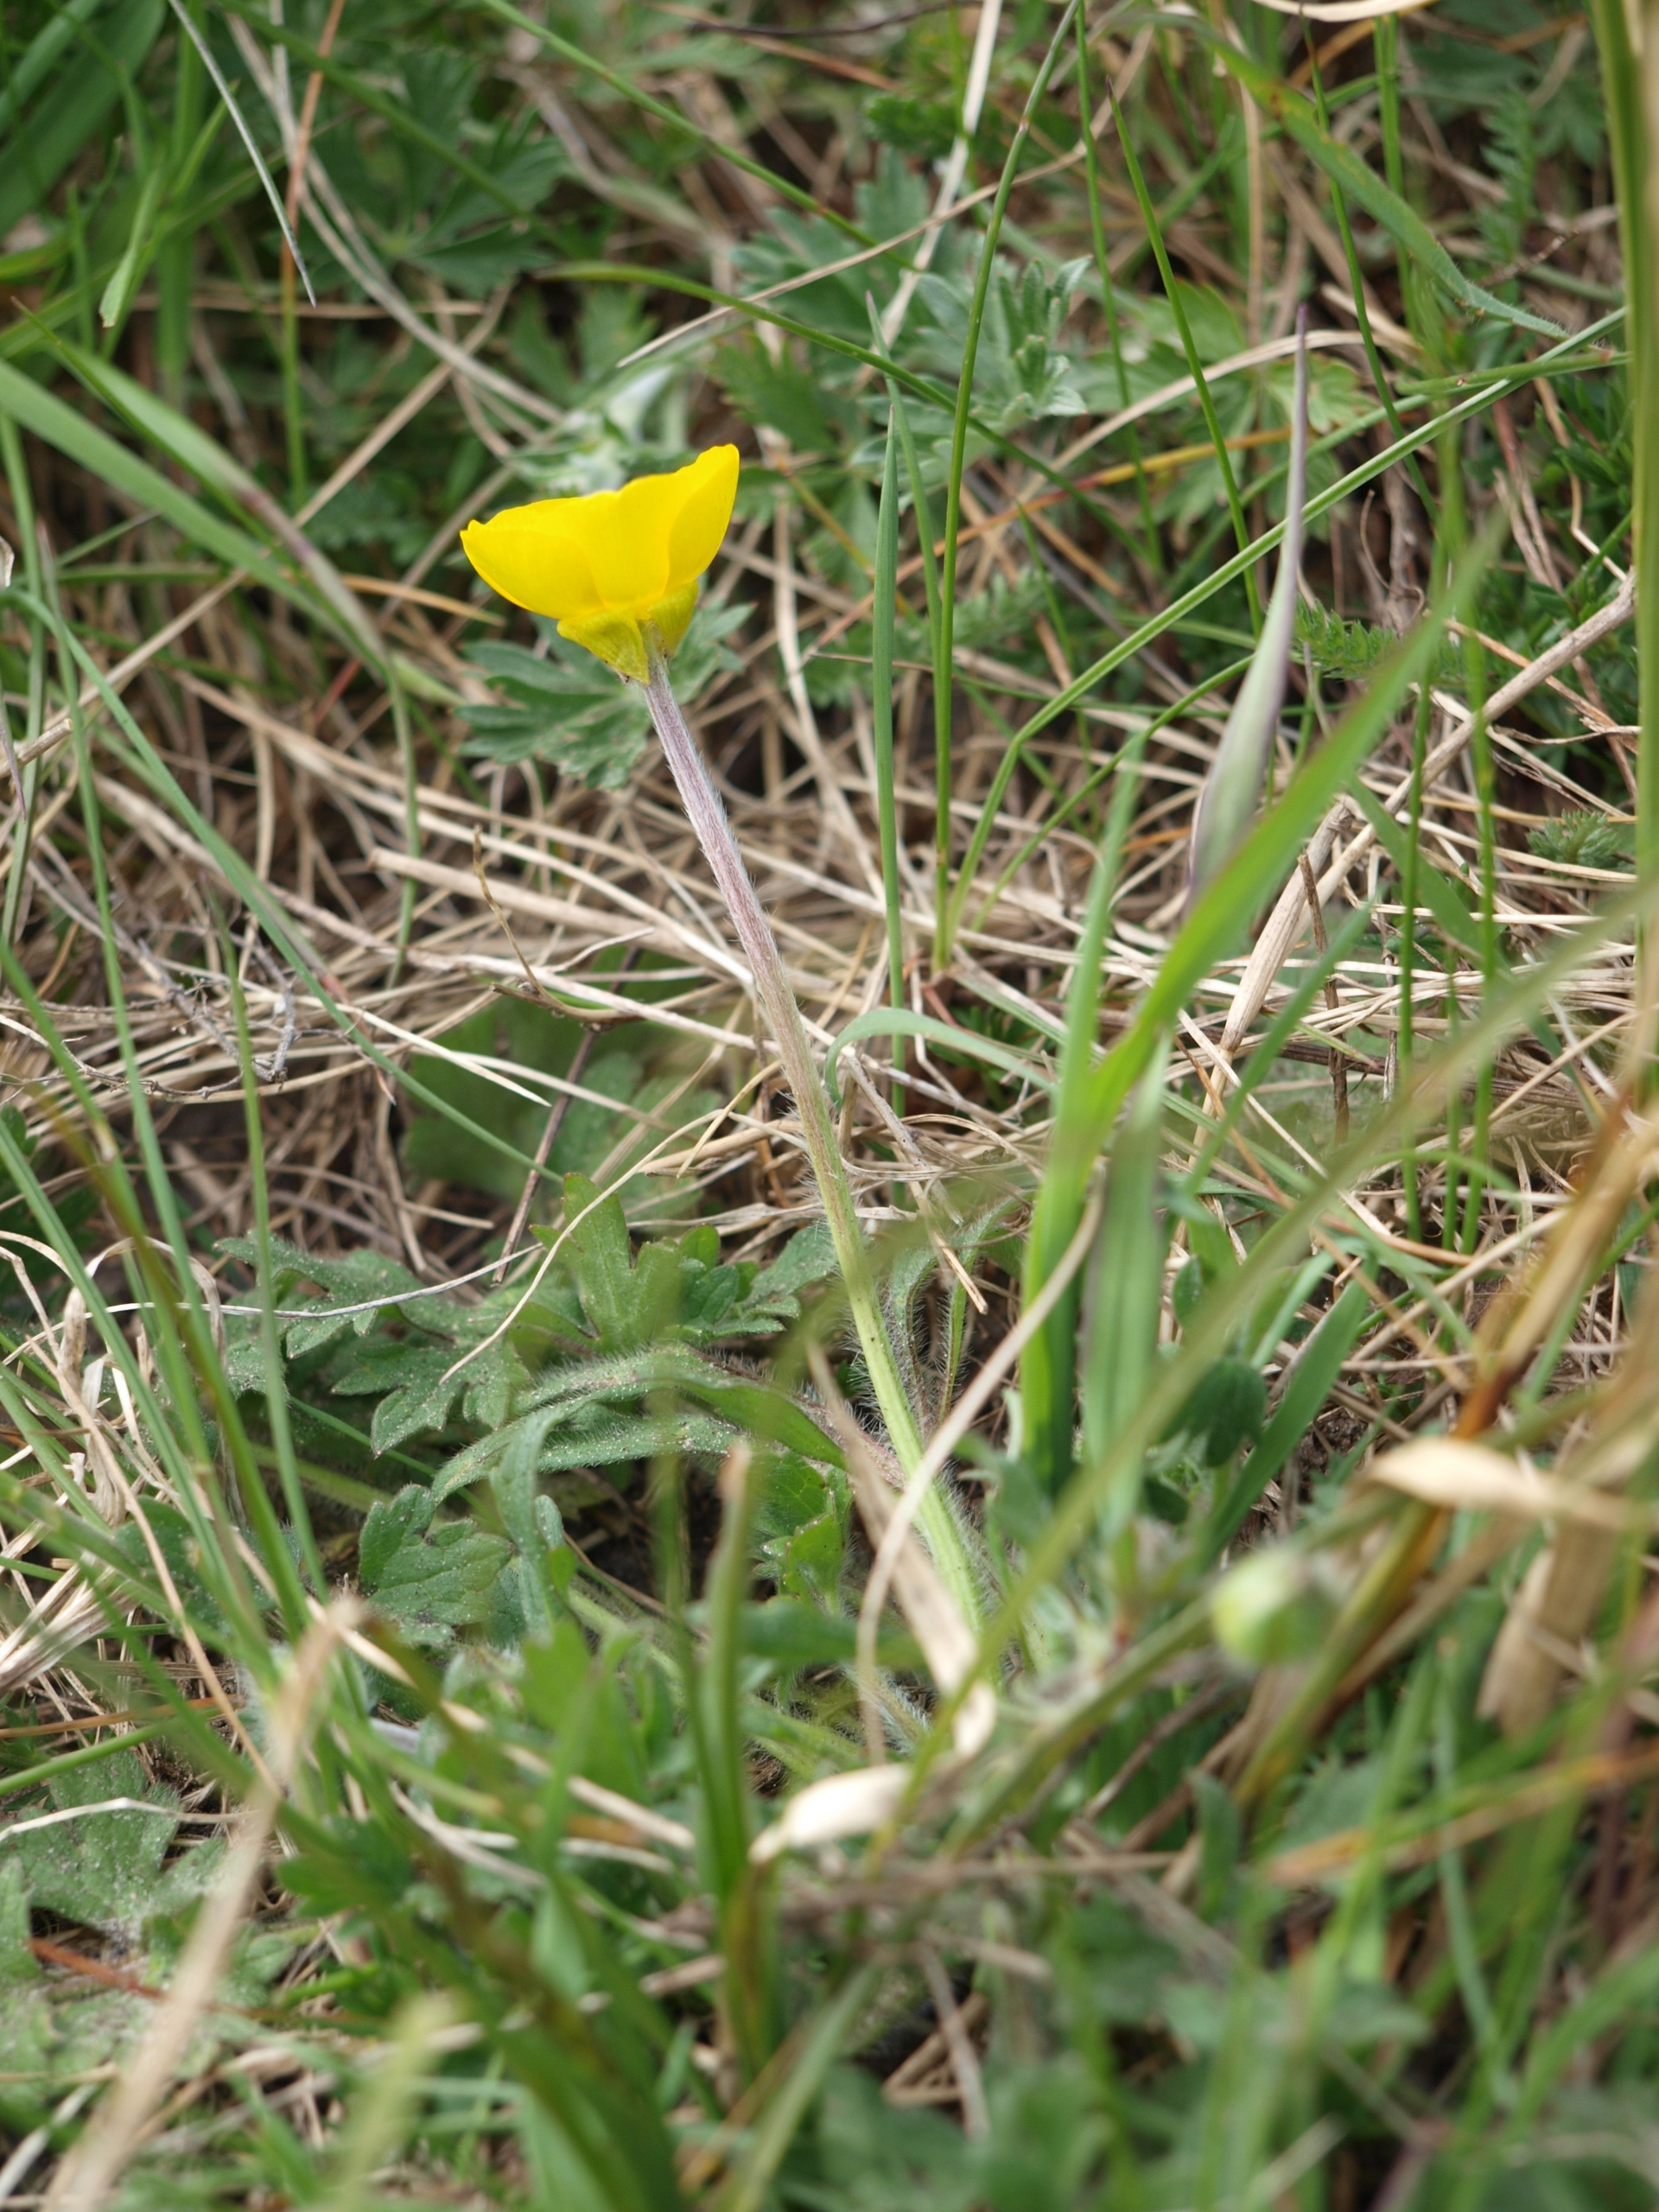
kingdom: Plantae
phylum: Tracheophyta
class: Magnoliopsida
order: Ranunculales
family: Ranunculaceae
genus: Ranunculus
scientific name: Ranunculus bulbosus
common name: Knold-ranunkel
